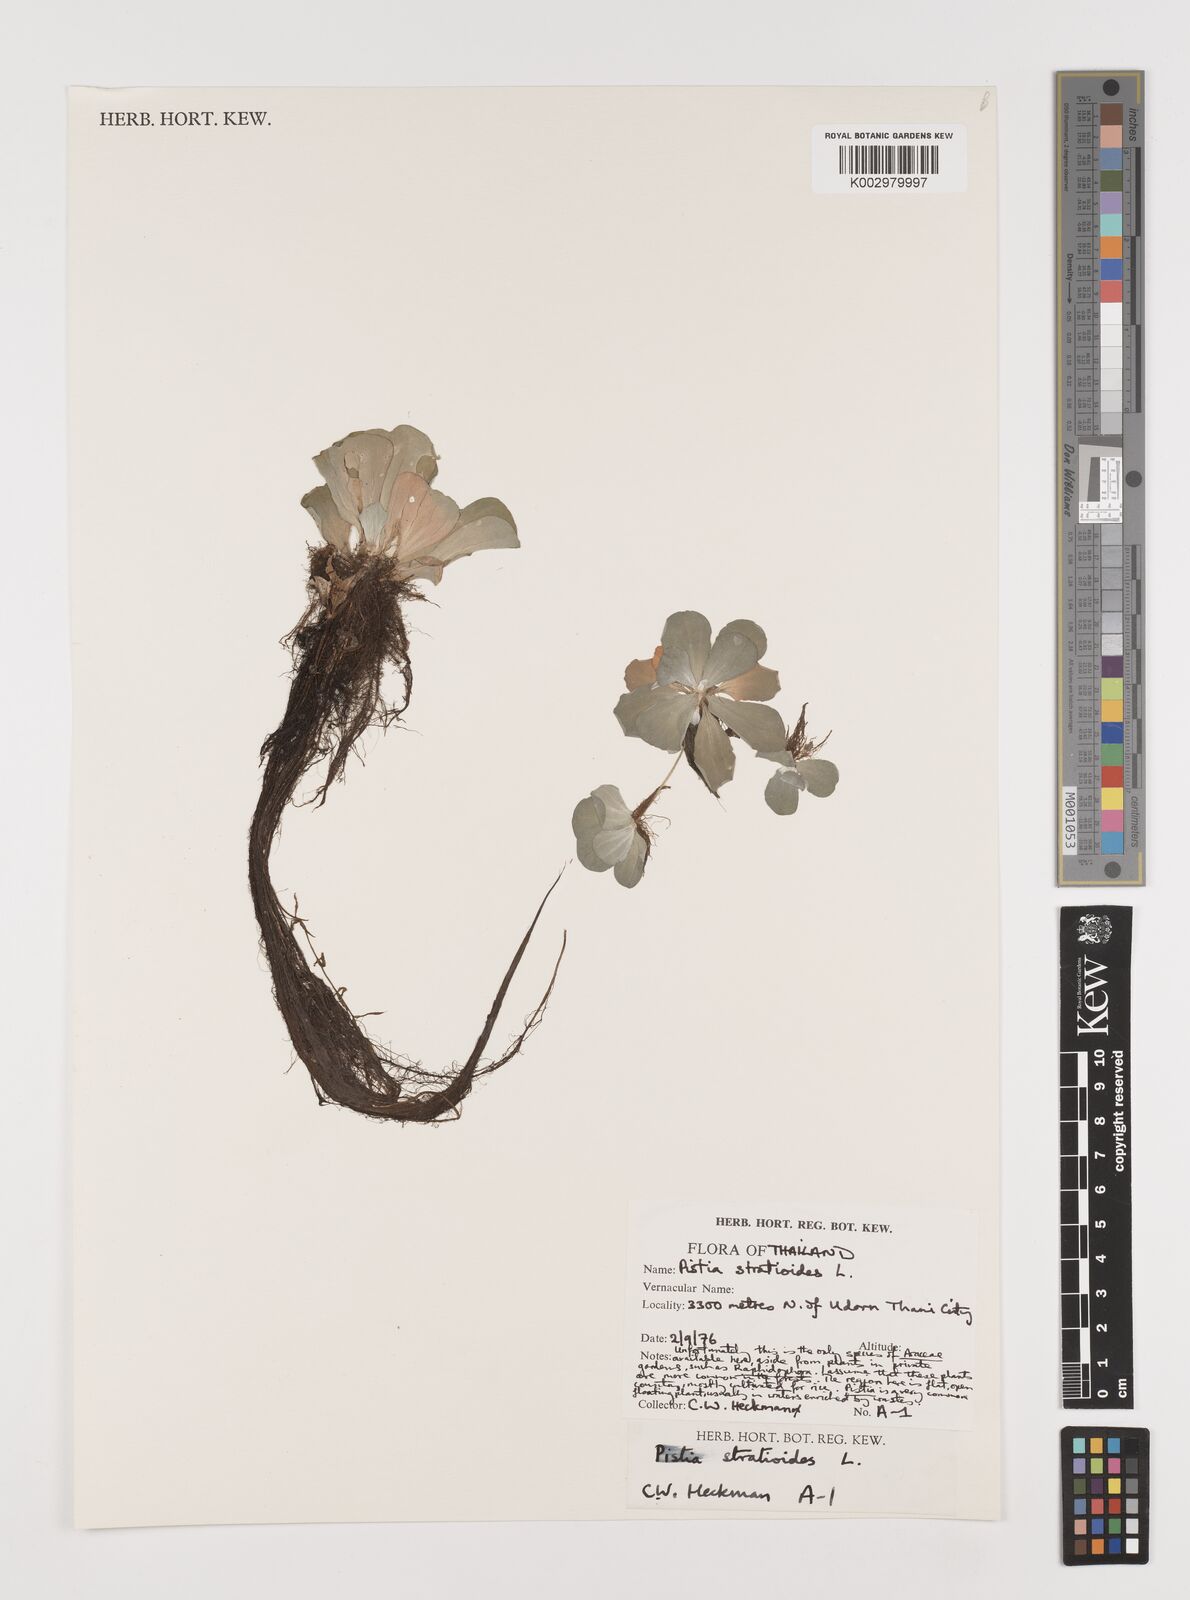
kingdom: Plantae
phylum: Tracheophyta
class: Liliopsida
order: Alismatales
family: Araceae
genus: Pistia
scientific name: Pistia stratiotes
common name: Water lettuce
